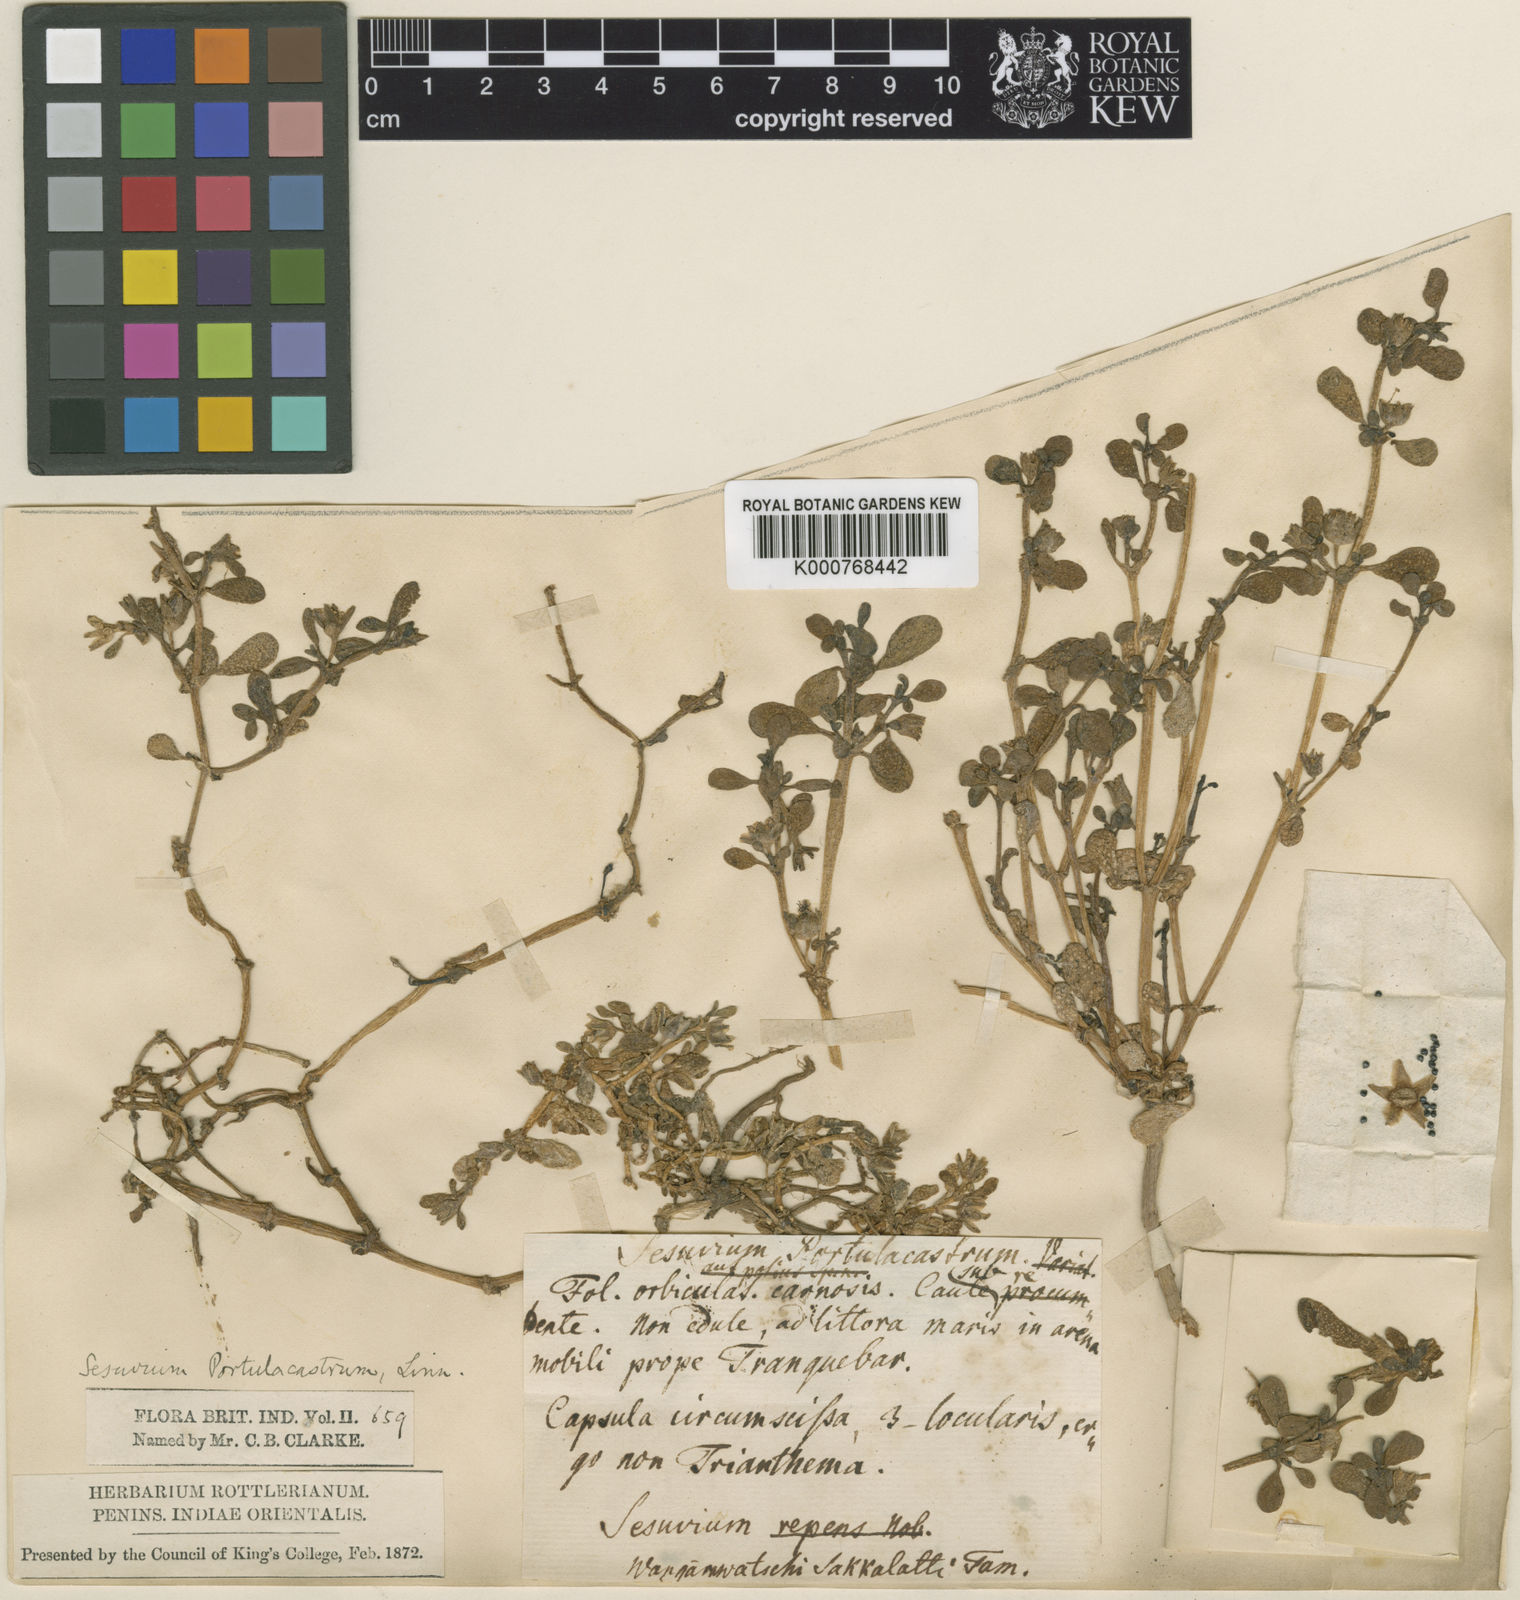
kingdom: Plantae
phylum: Tracheophyta
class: Magnoliopsida
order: Caryophyllales
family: Aizoaceae
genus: Sesuvium
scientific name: Sesuvium portulacastrum
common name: Sea-purslane
